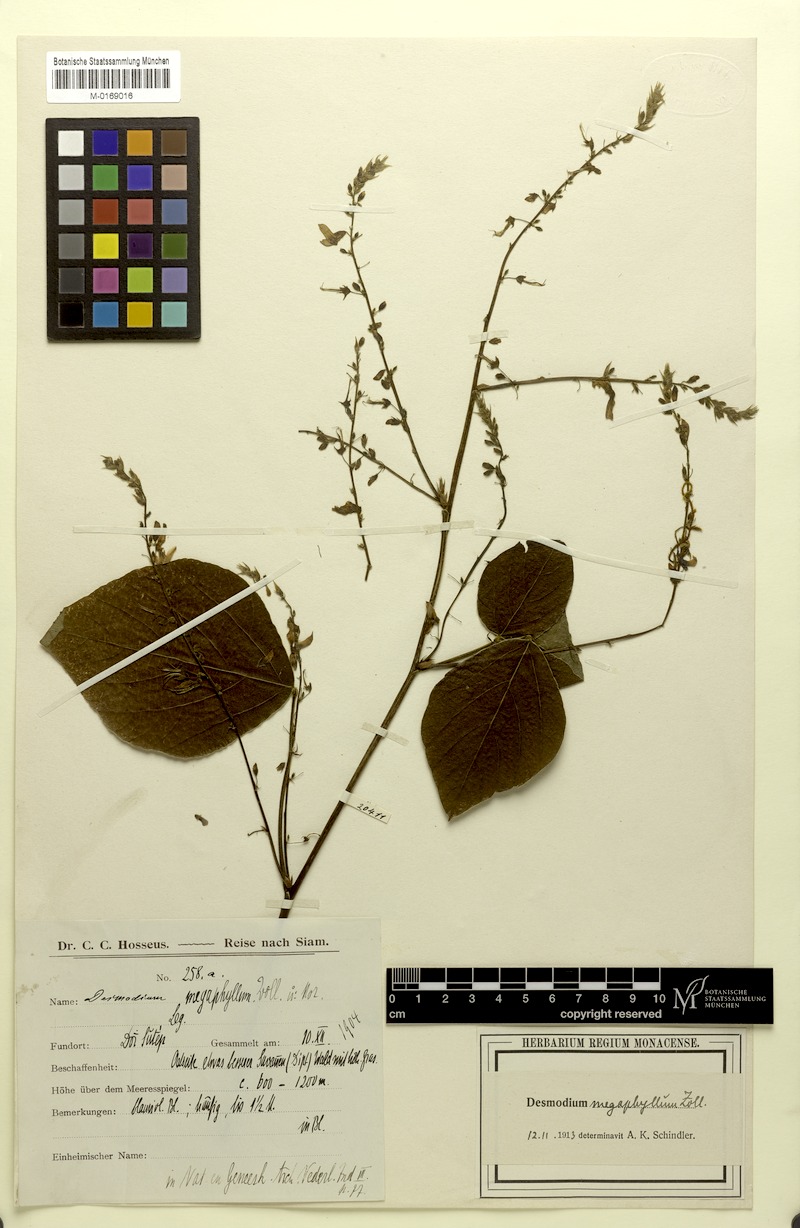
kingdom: Plantae
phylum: Tracheophyta
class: Magnoliopsida
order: Fabales
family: Fabaceae
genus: Puhuaea
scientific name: Puhuaea megaphylla
